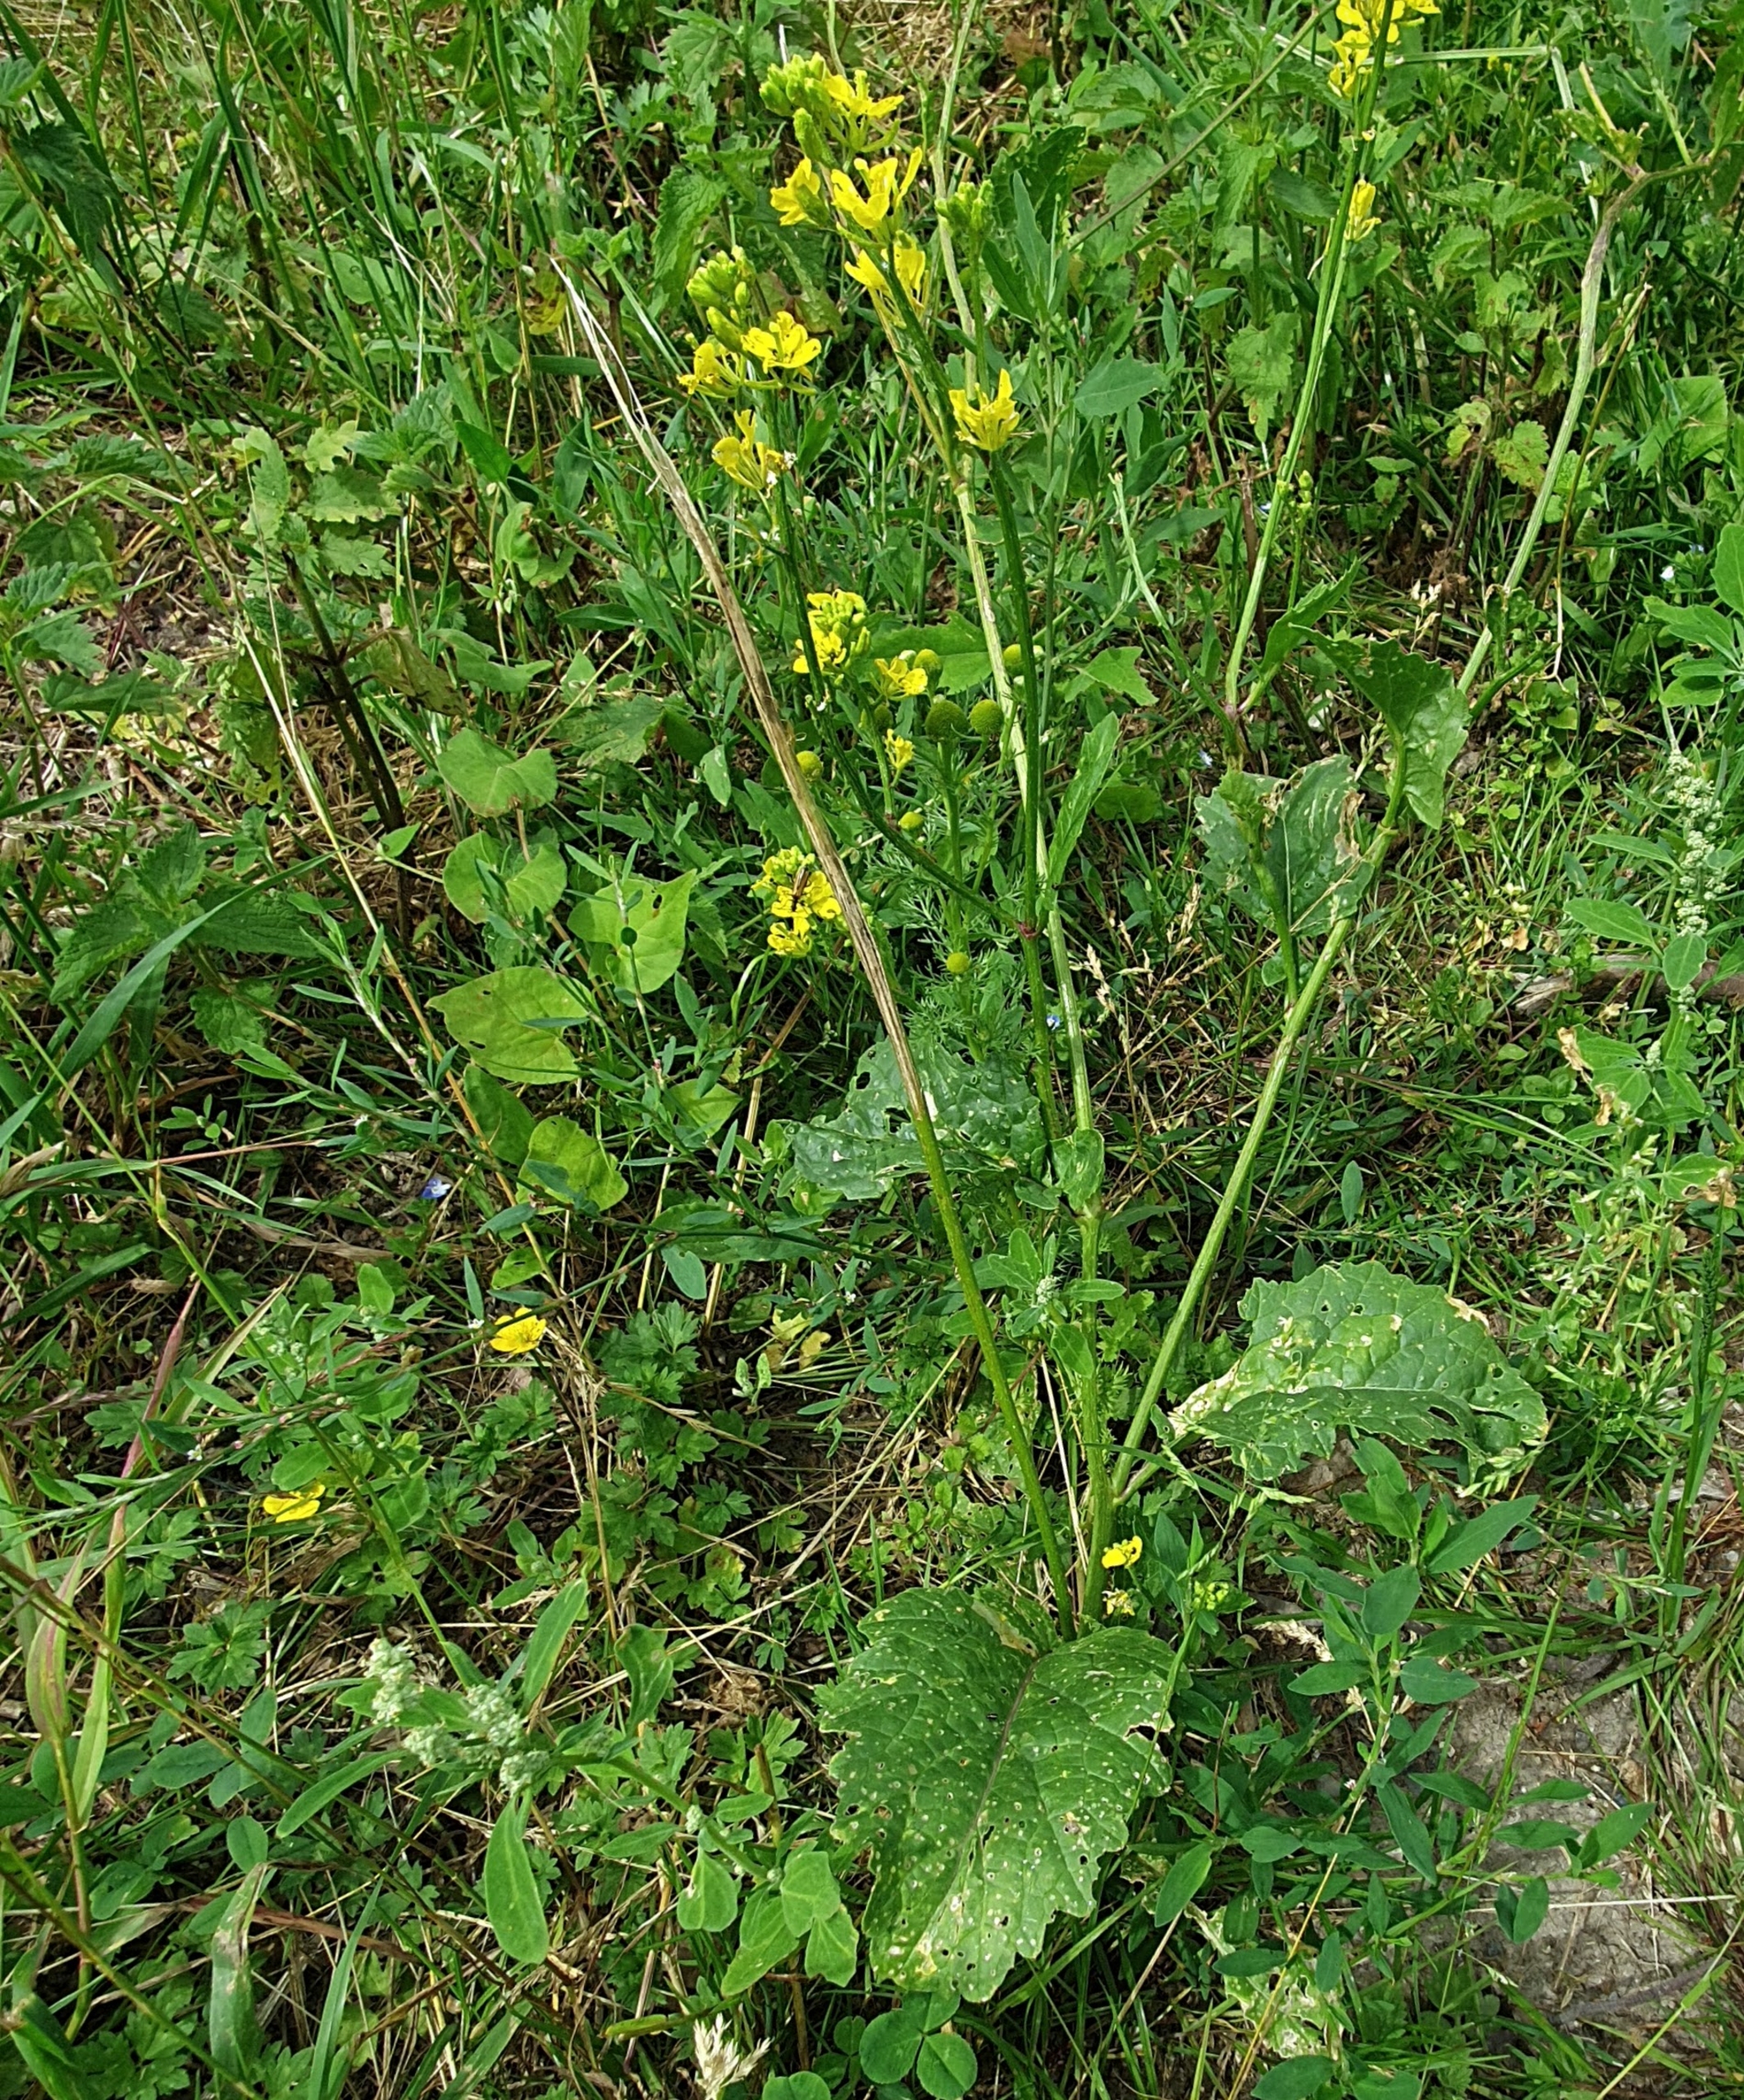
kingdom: Plantae
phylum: Tracheophyta
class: Magnoliopsida
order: Brassicales
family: Brassicaceae
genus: Sinapis
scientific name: Sinapis arvensis
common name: Ager-sennep
